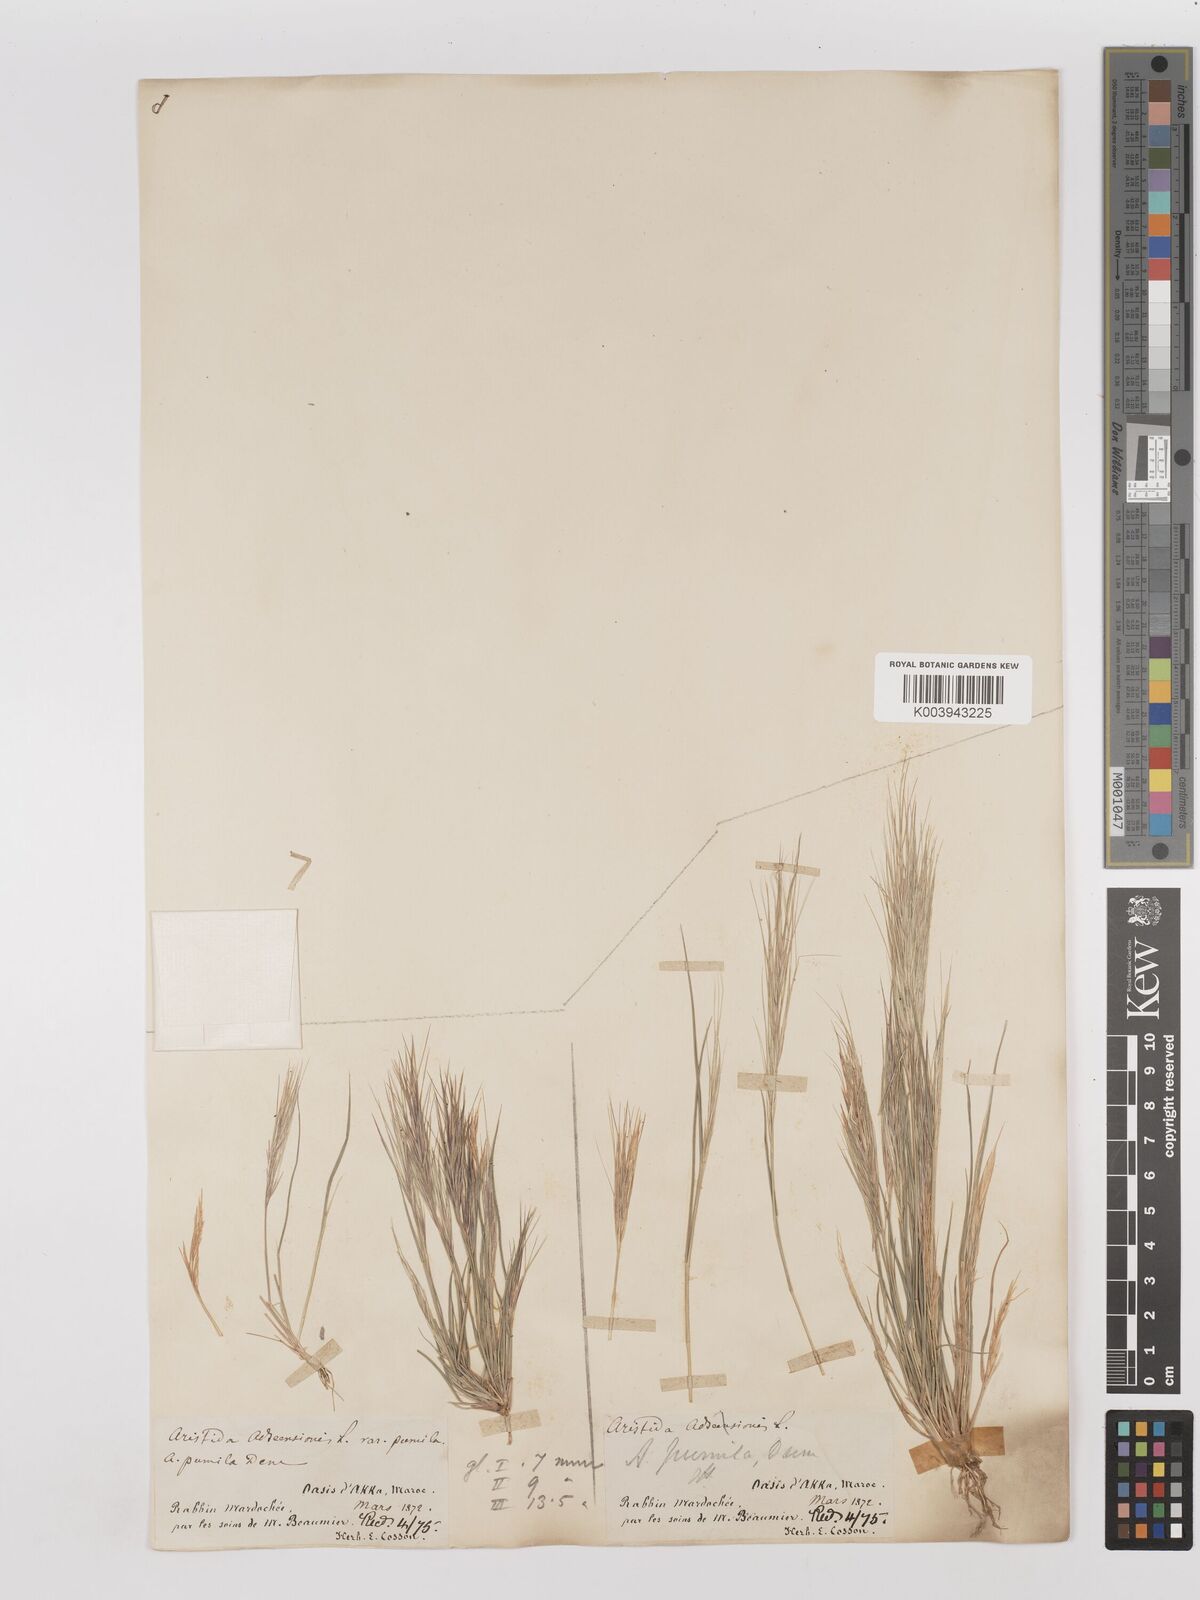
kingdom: Plantae
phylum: Tracheophyta
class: Liliopsida
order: Poales
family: Poaceae
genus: Aristida
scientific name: Aristida adscensionis
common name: Sixweeks threeawn
